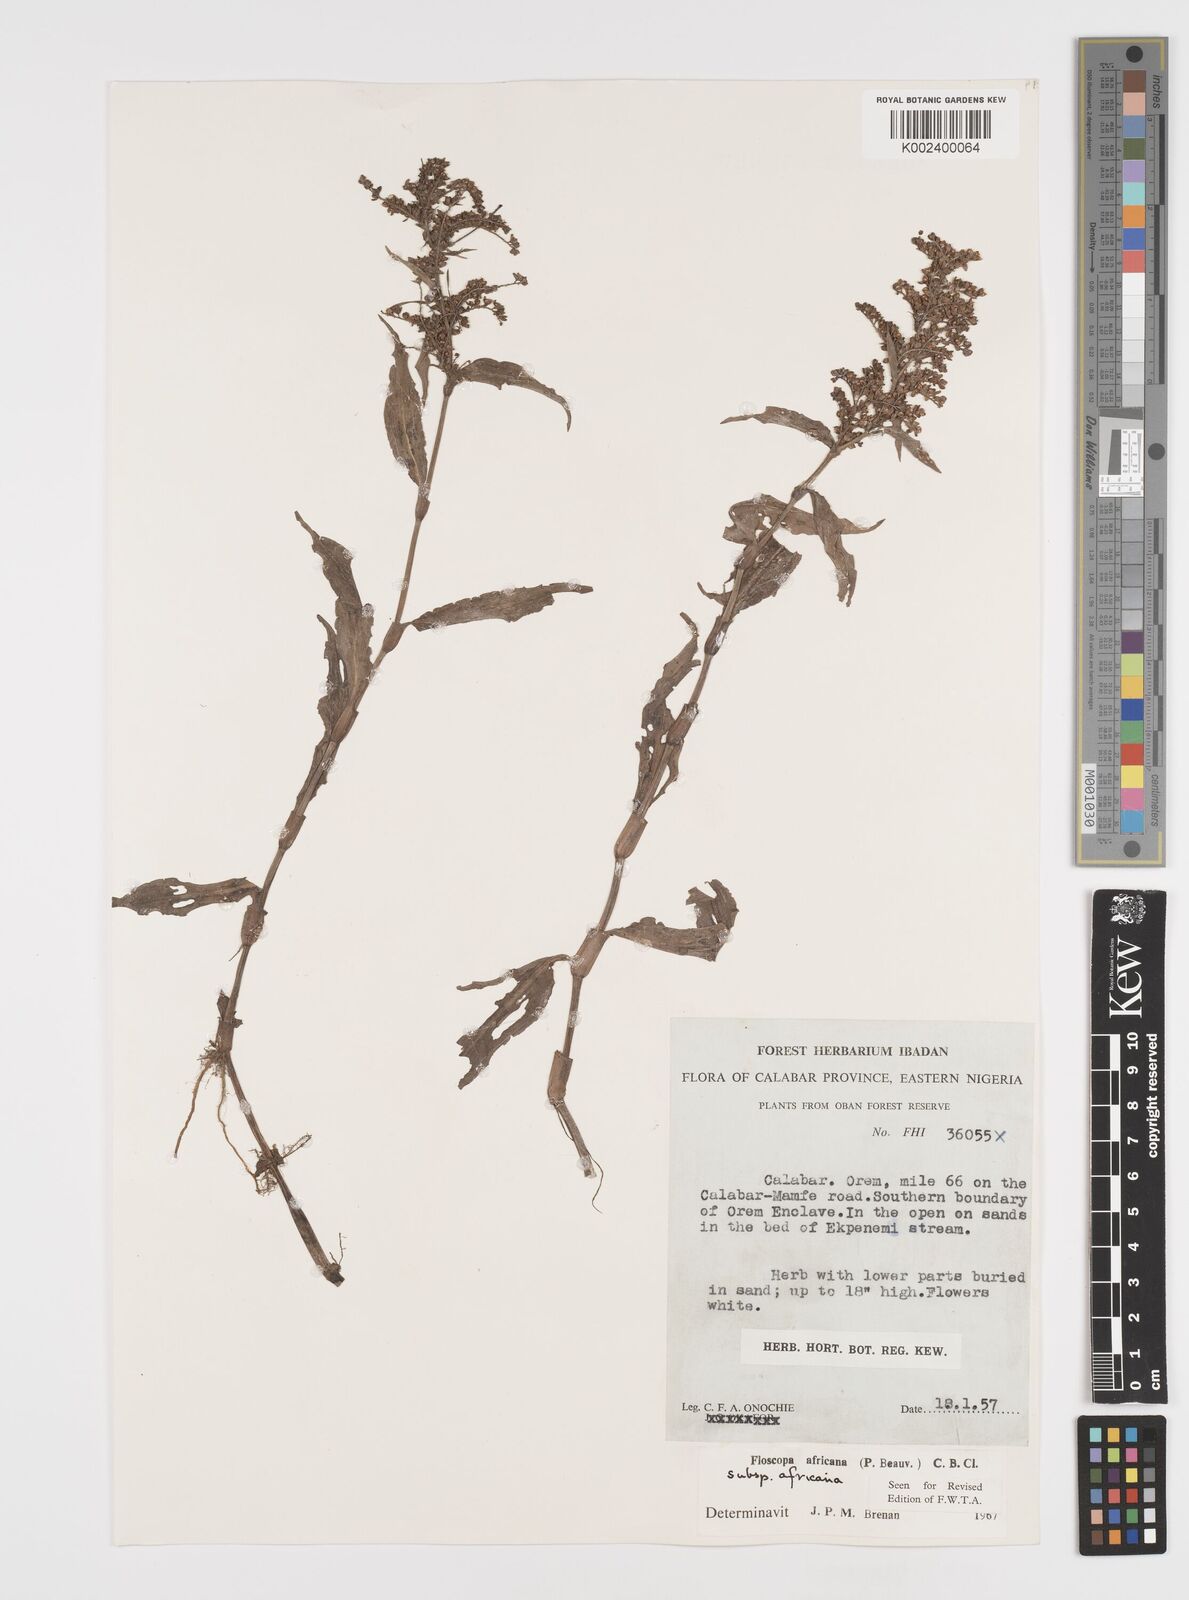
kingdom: Plantae
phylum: Tracheophyta
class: Liliopsida
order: Commelinales
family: Commelinaceae
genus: Floscopa
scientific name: Floscopa africana
